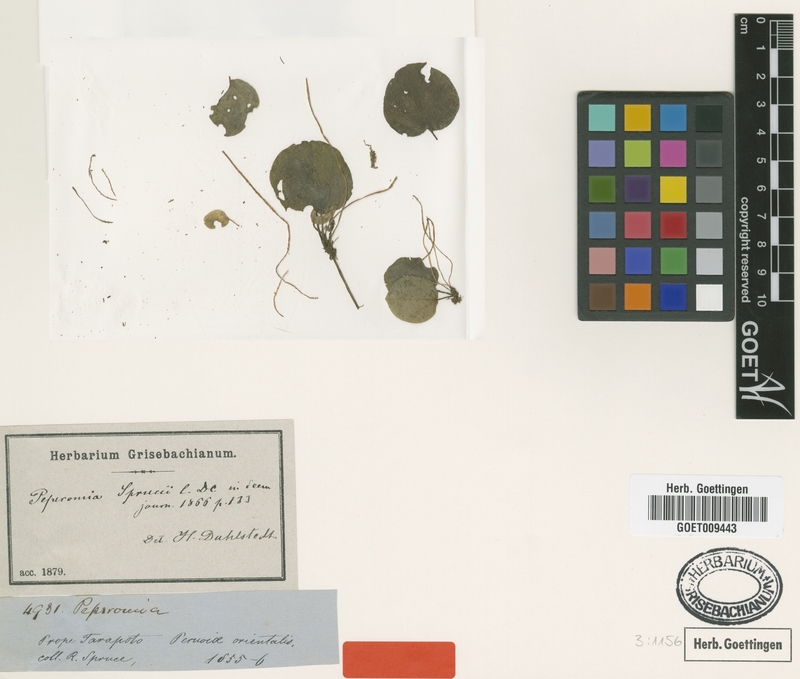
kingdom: Plantae
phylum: Tracheophyta
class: Magnoliopsida
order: Piperales
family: Piperaceae
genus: Peperomia
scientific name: Peperomia sprucei
